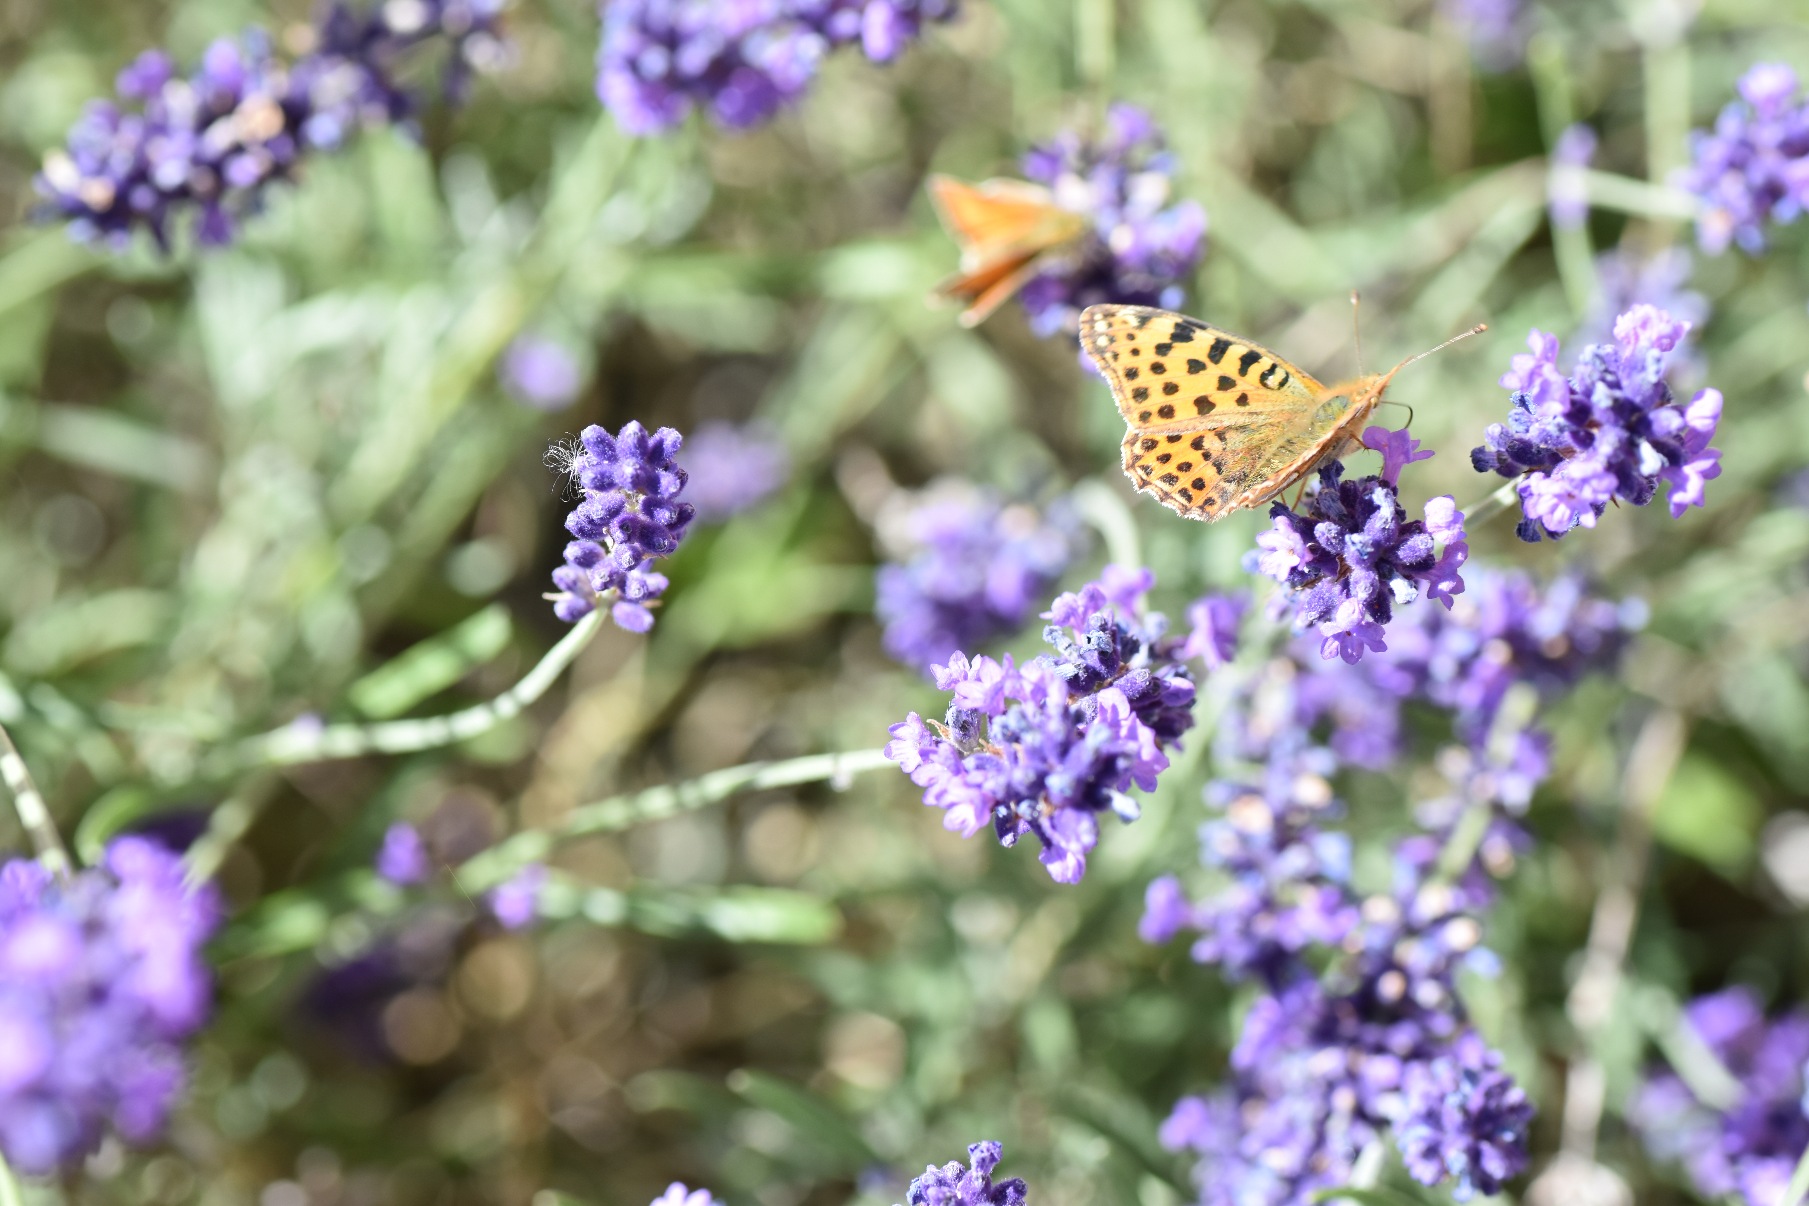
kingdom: Animalia
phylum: Arthropoda
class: Insecta
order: Lepidoptera
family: Nymphalidae
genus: Issoria
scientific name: Issoria lathonia
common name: Storplettet perlemorsommerfugl
